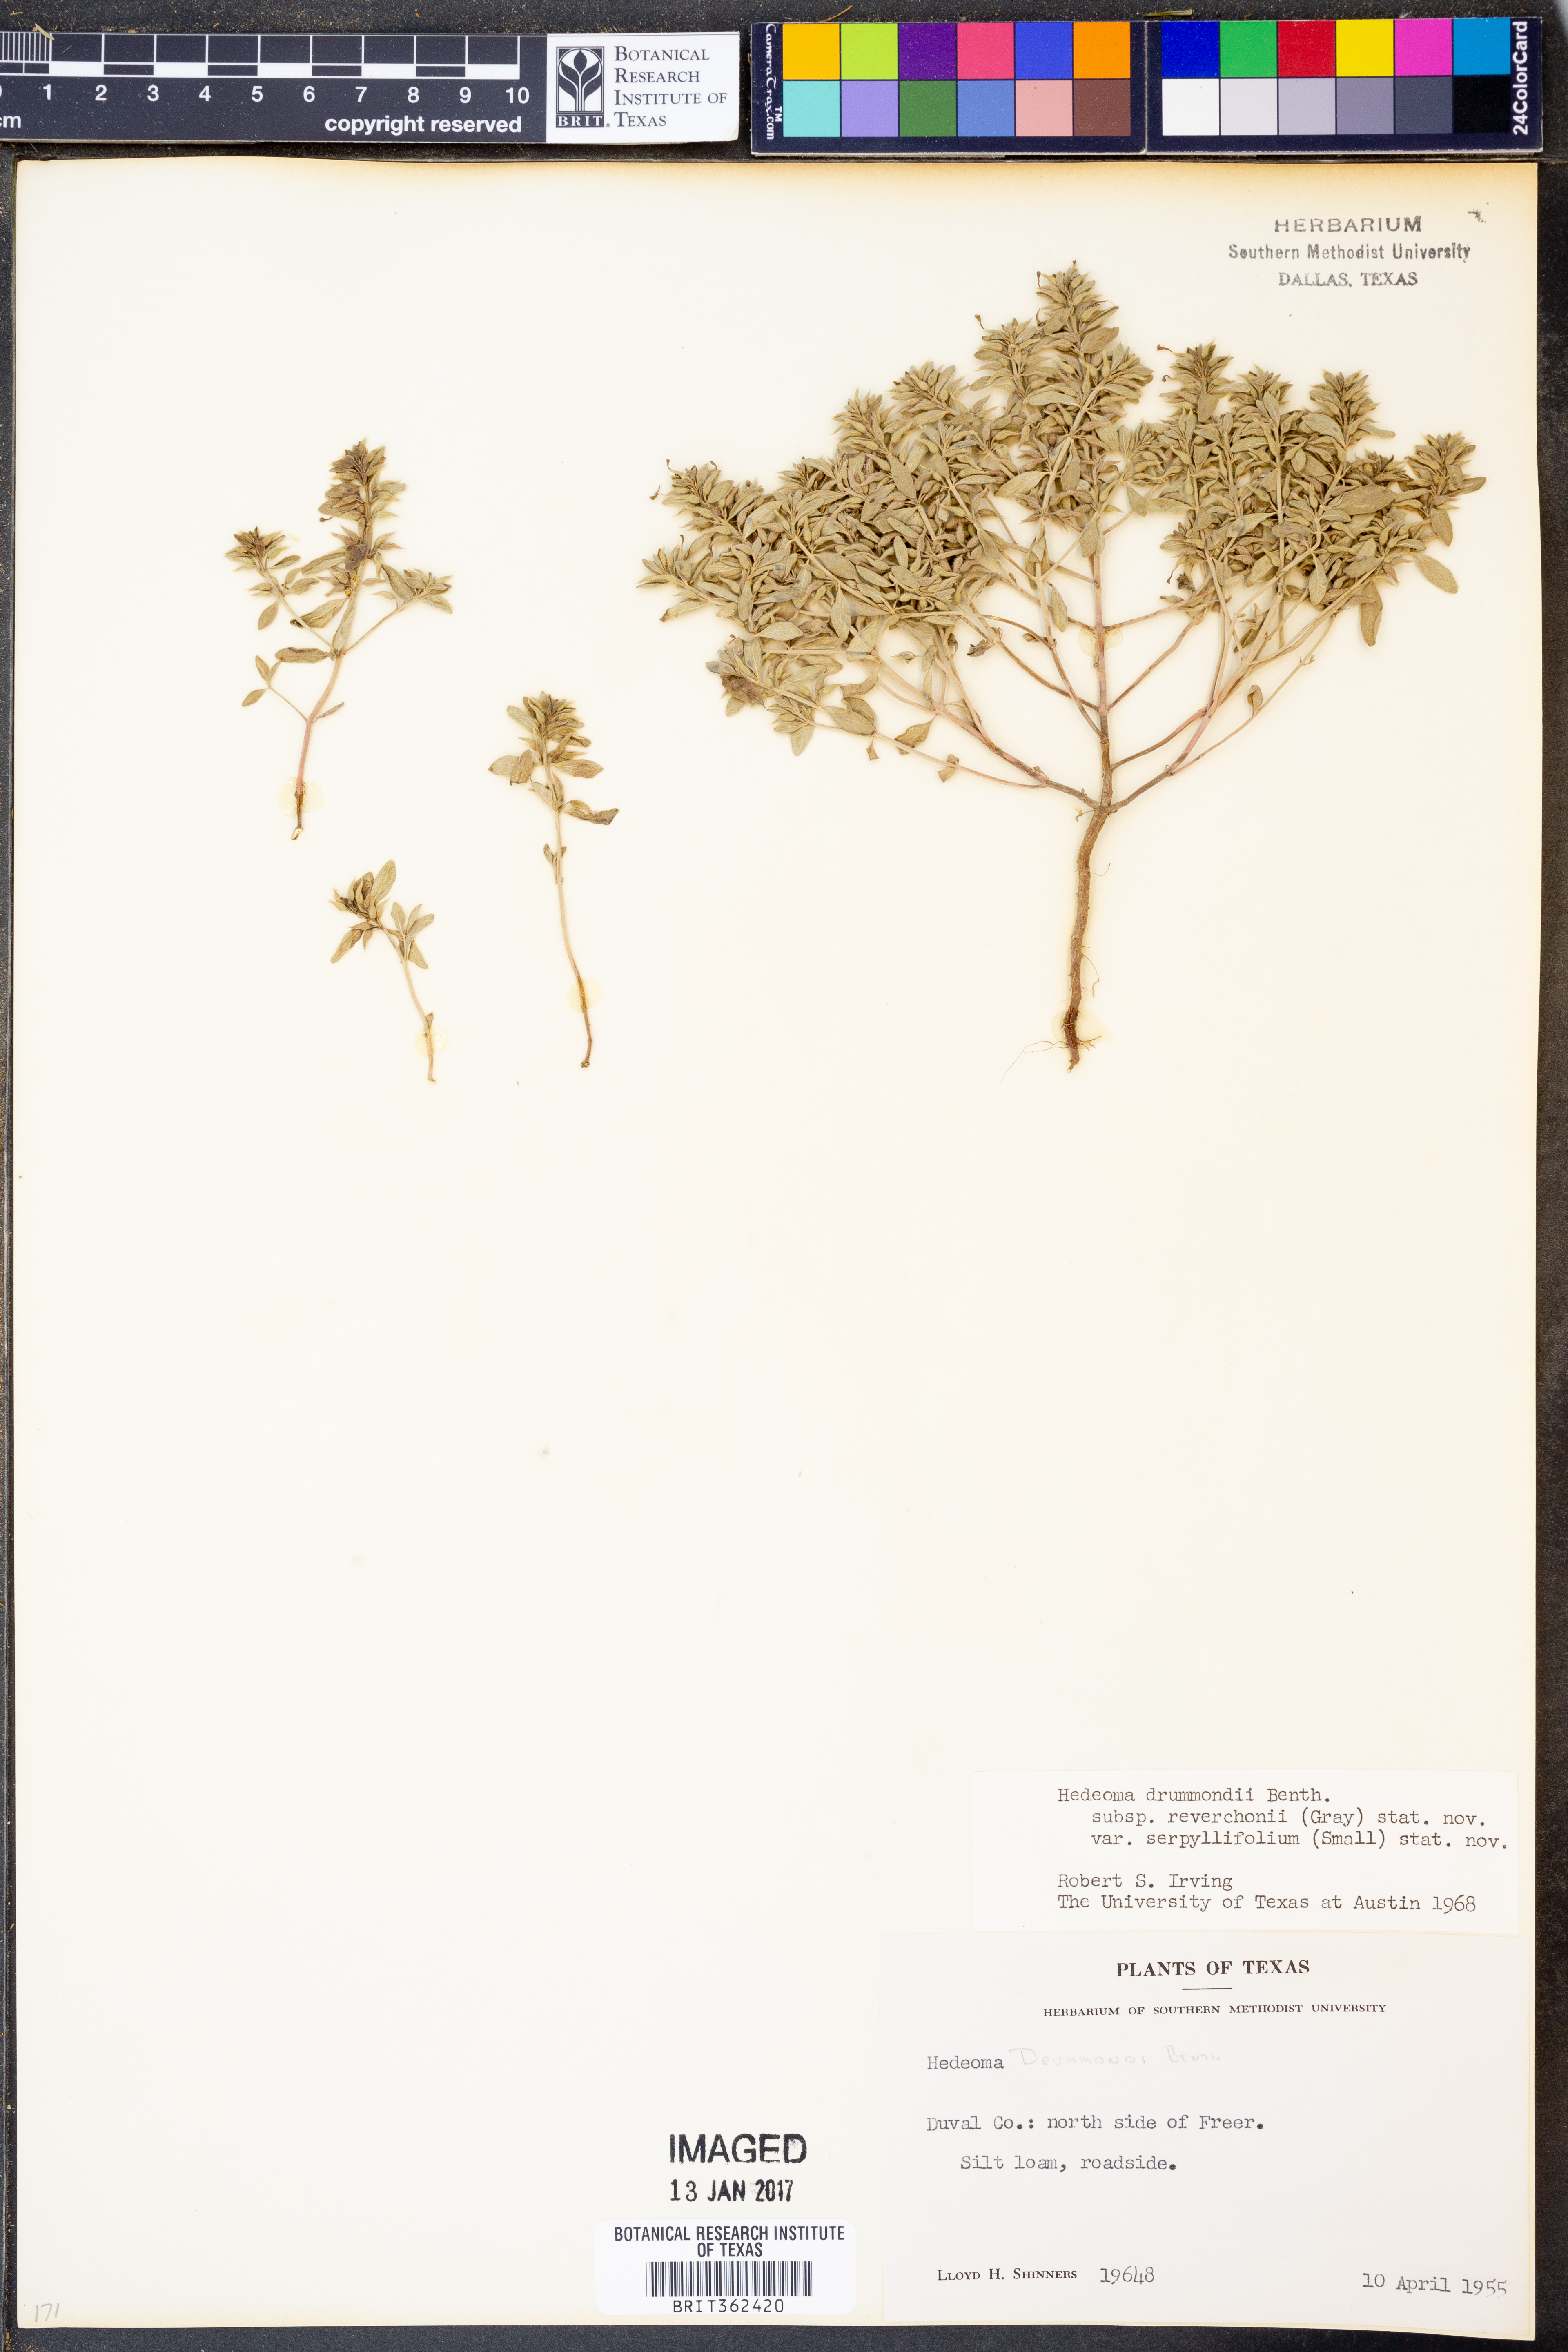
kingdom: Plantae
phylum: Tracheophyta
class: Magnoliopsida
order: Lamiales
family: Lamiaceae
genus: Hedeoma
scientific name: Hedeoma reverchonii
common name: Reverchon's false penny-royal
